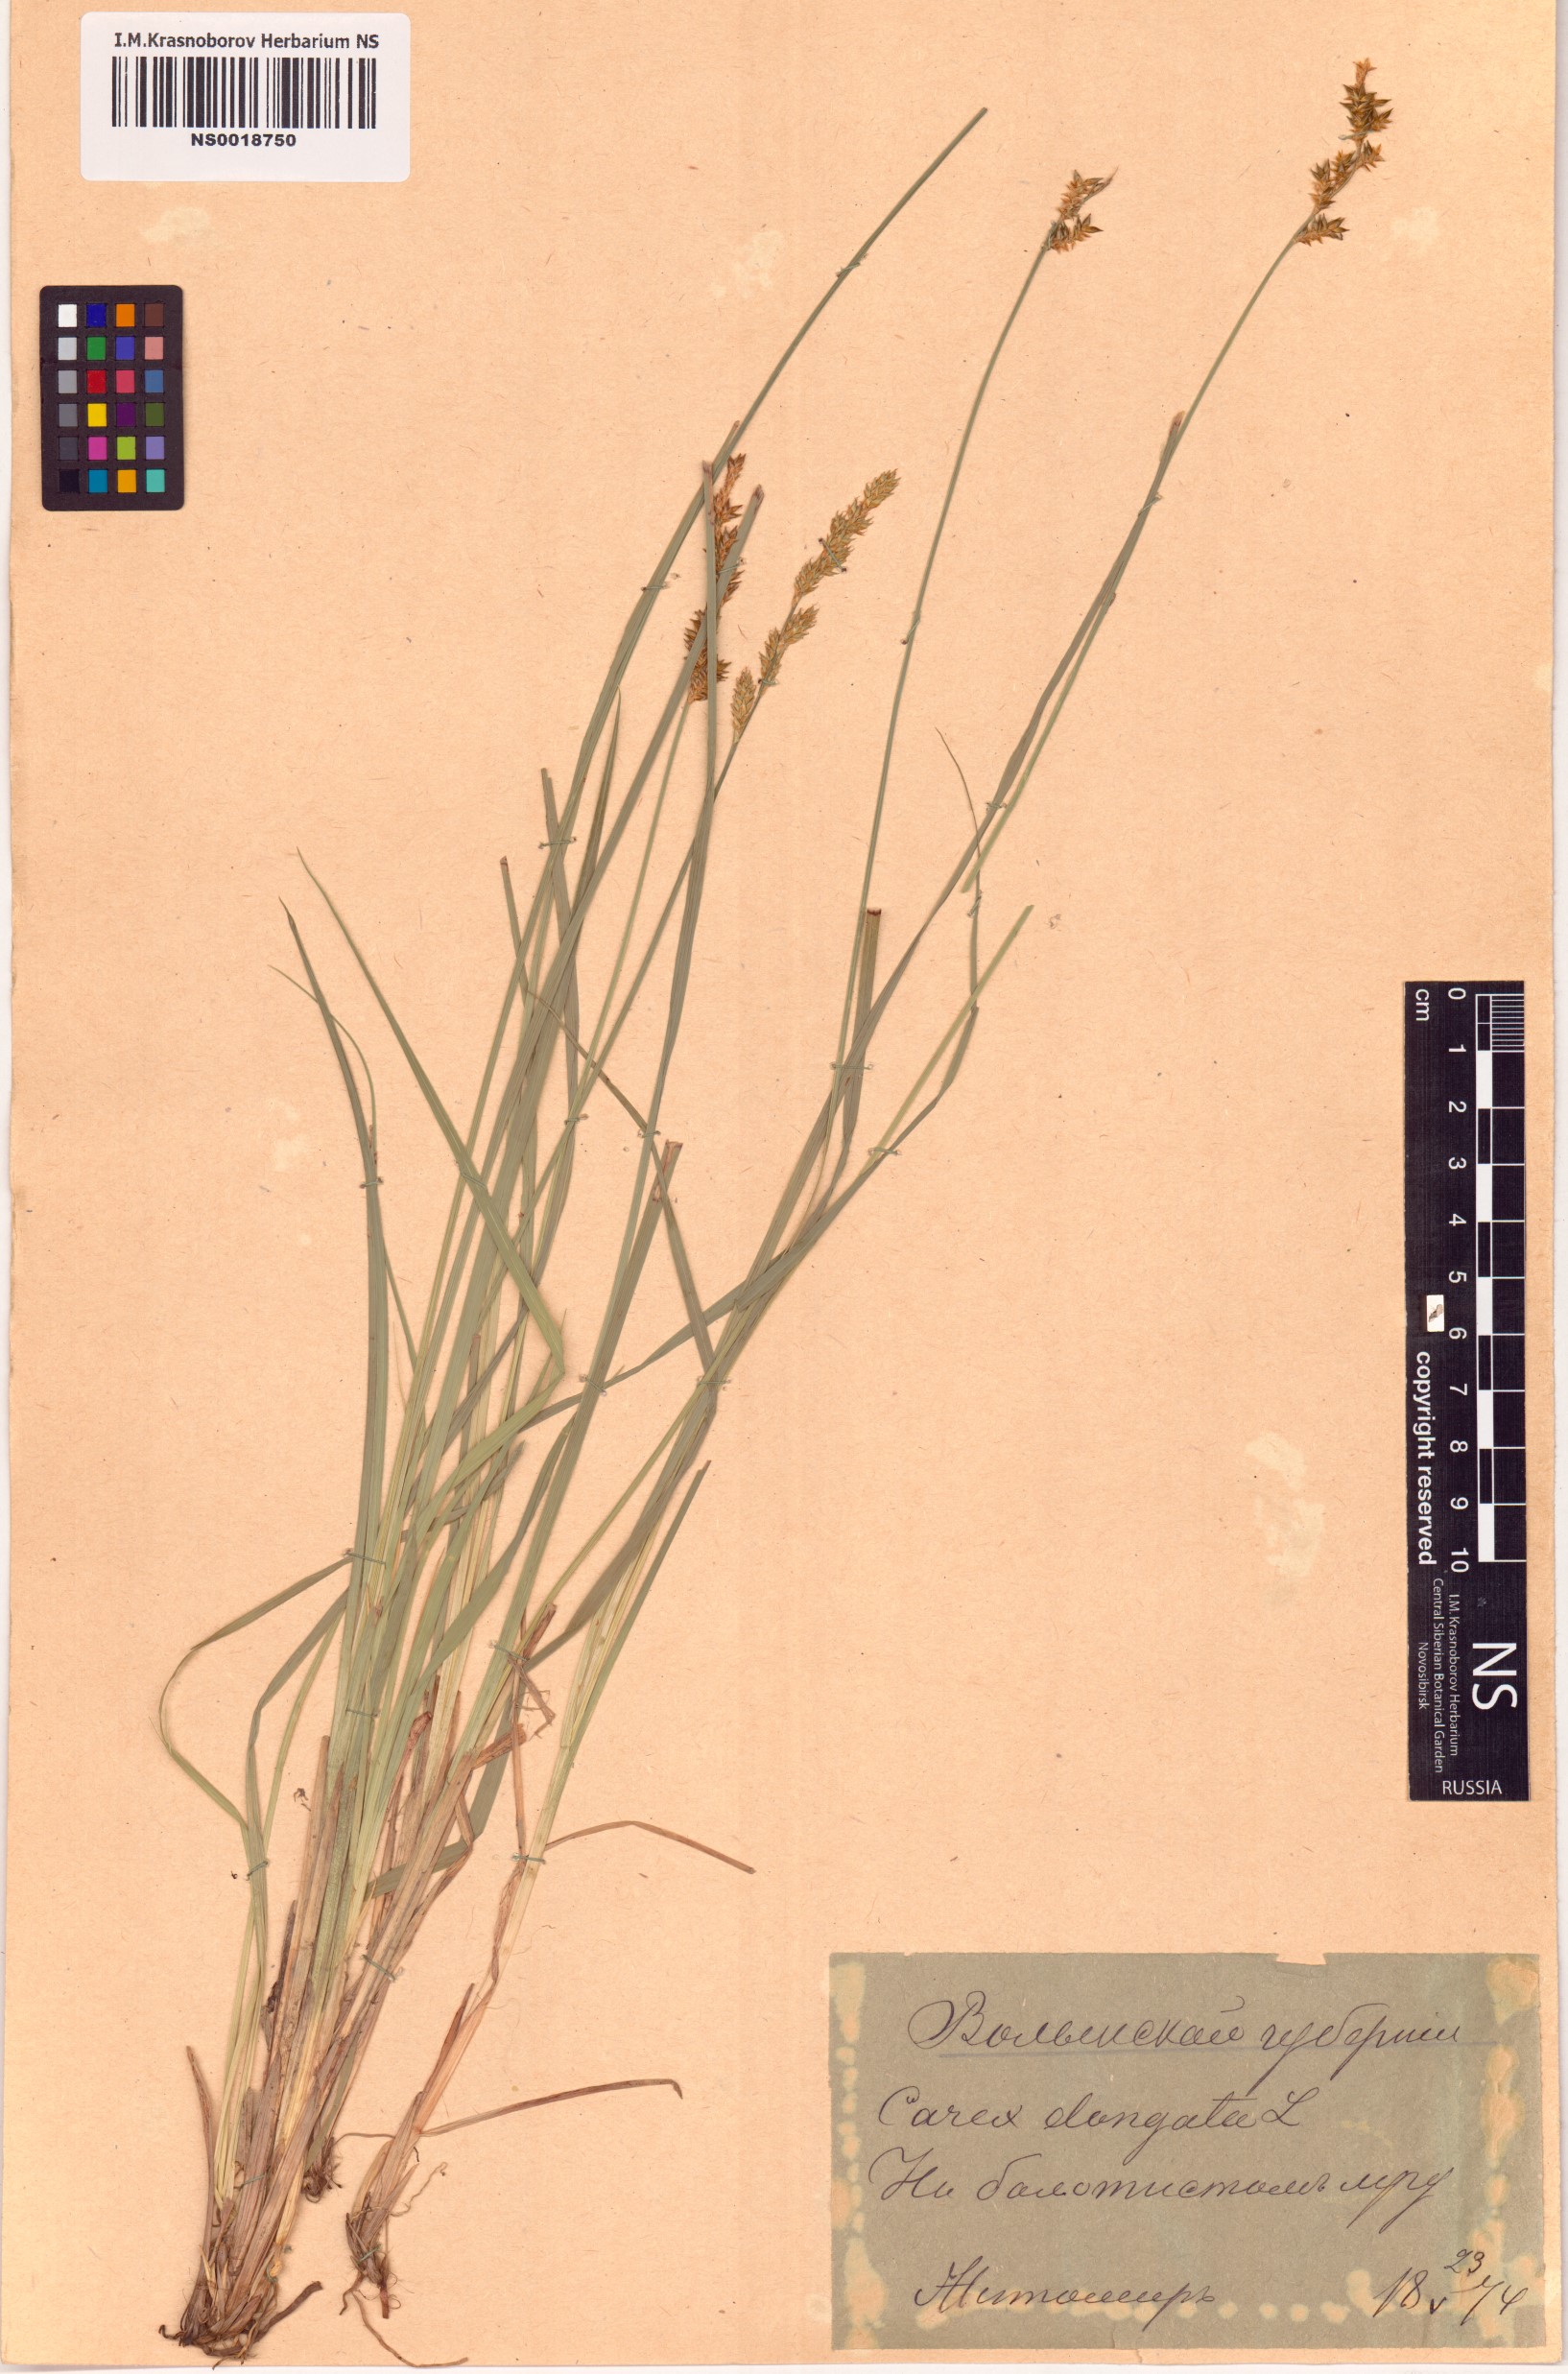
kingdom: Plantae
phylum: Tracheophyta
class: Liliopsida
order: Poales
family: Cyperaceae
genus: Carex
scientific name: Carex elongata
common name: Elongated sedge
